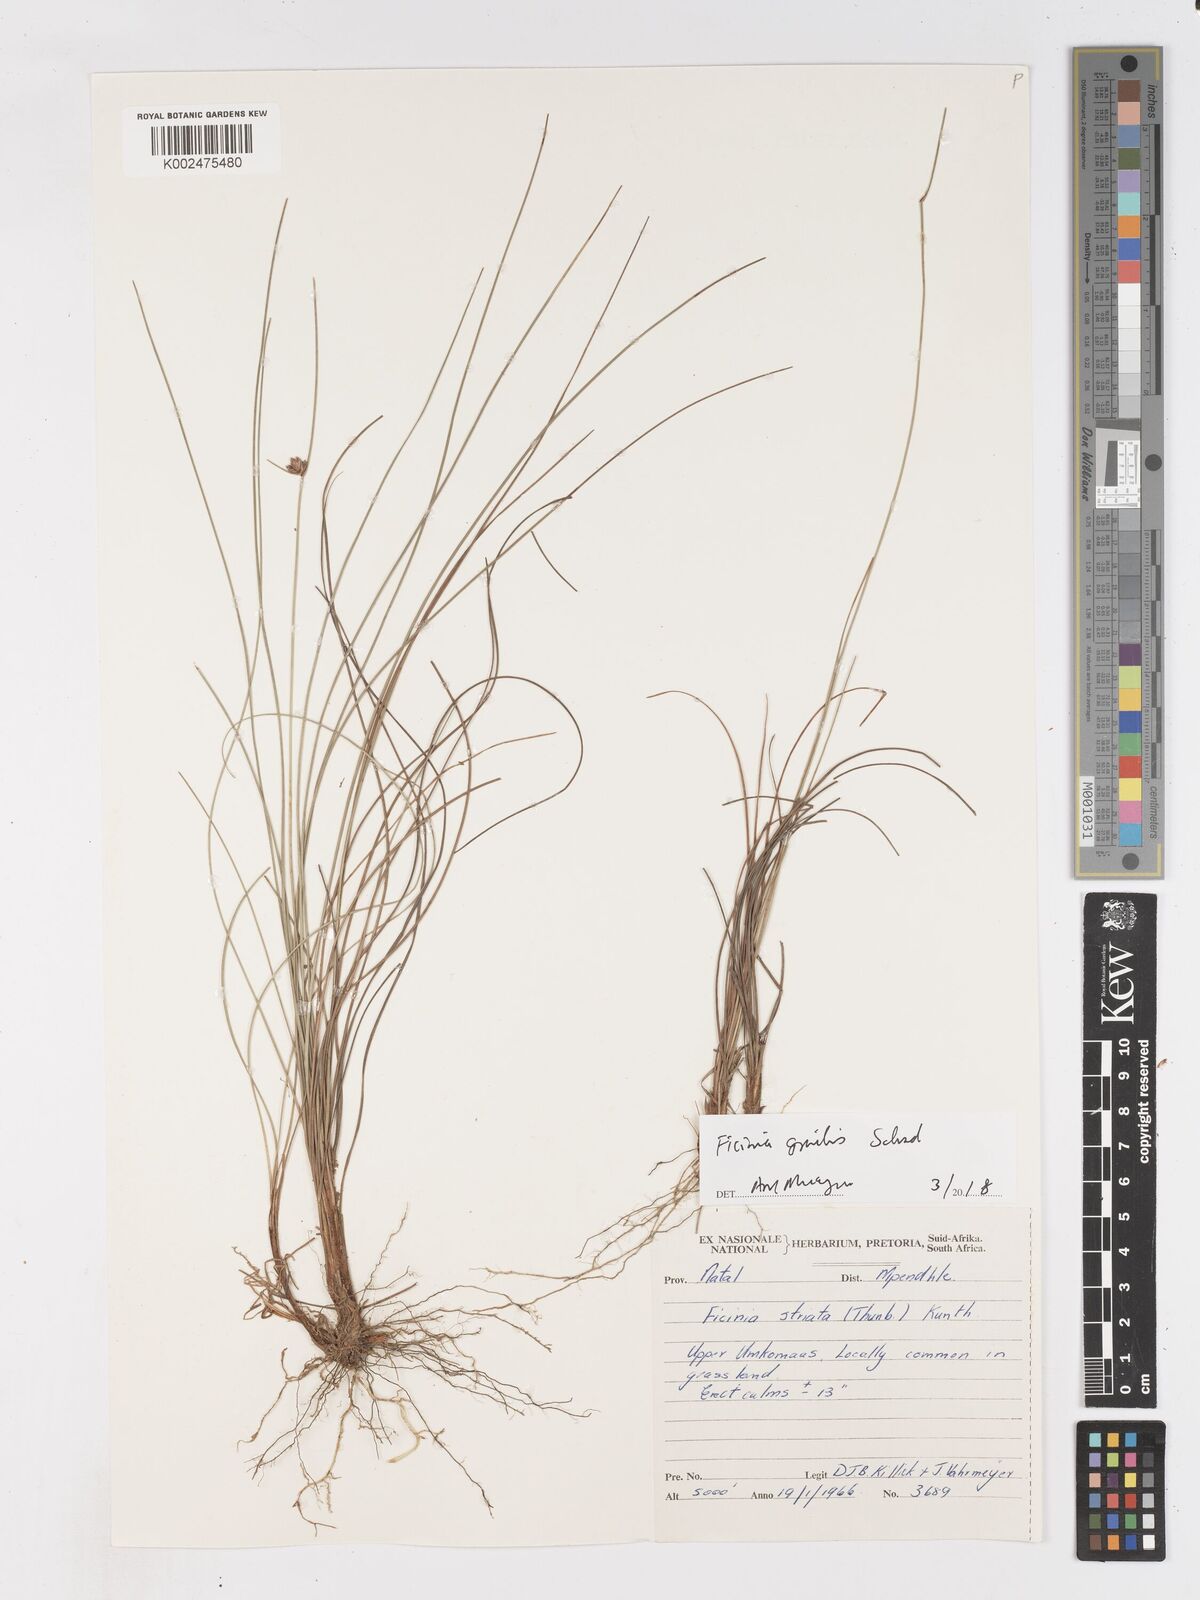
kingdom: Plantae
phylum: Tracheophyta
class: Liliopsida
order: Poales
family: Cyperaceae
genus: Ficinia
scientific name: Ficinia gracilis
